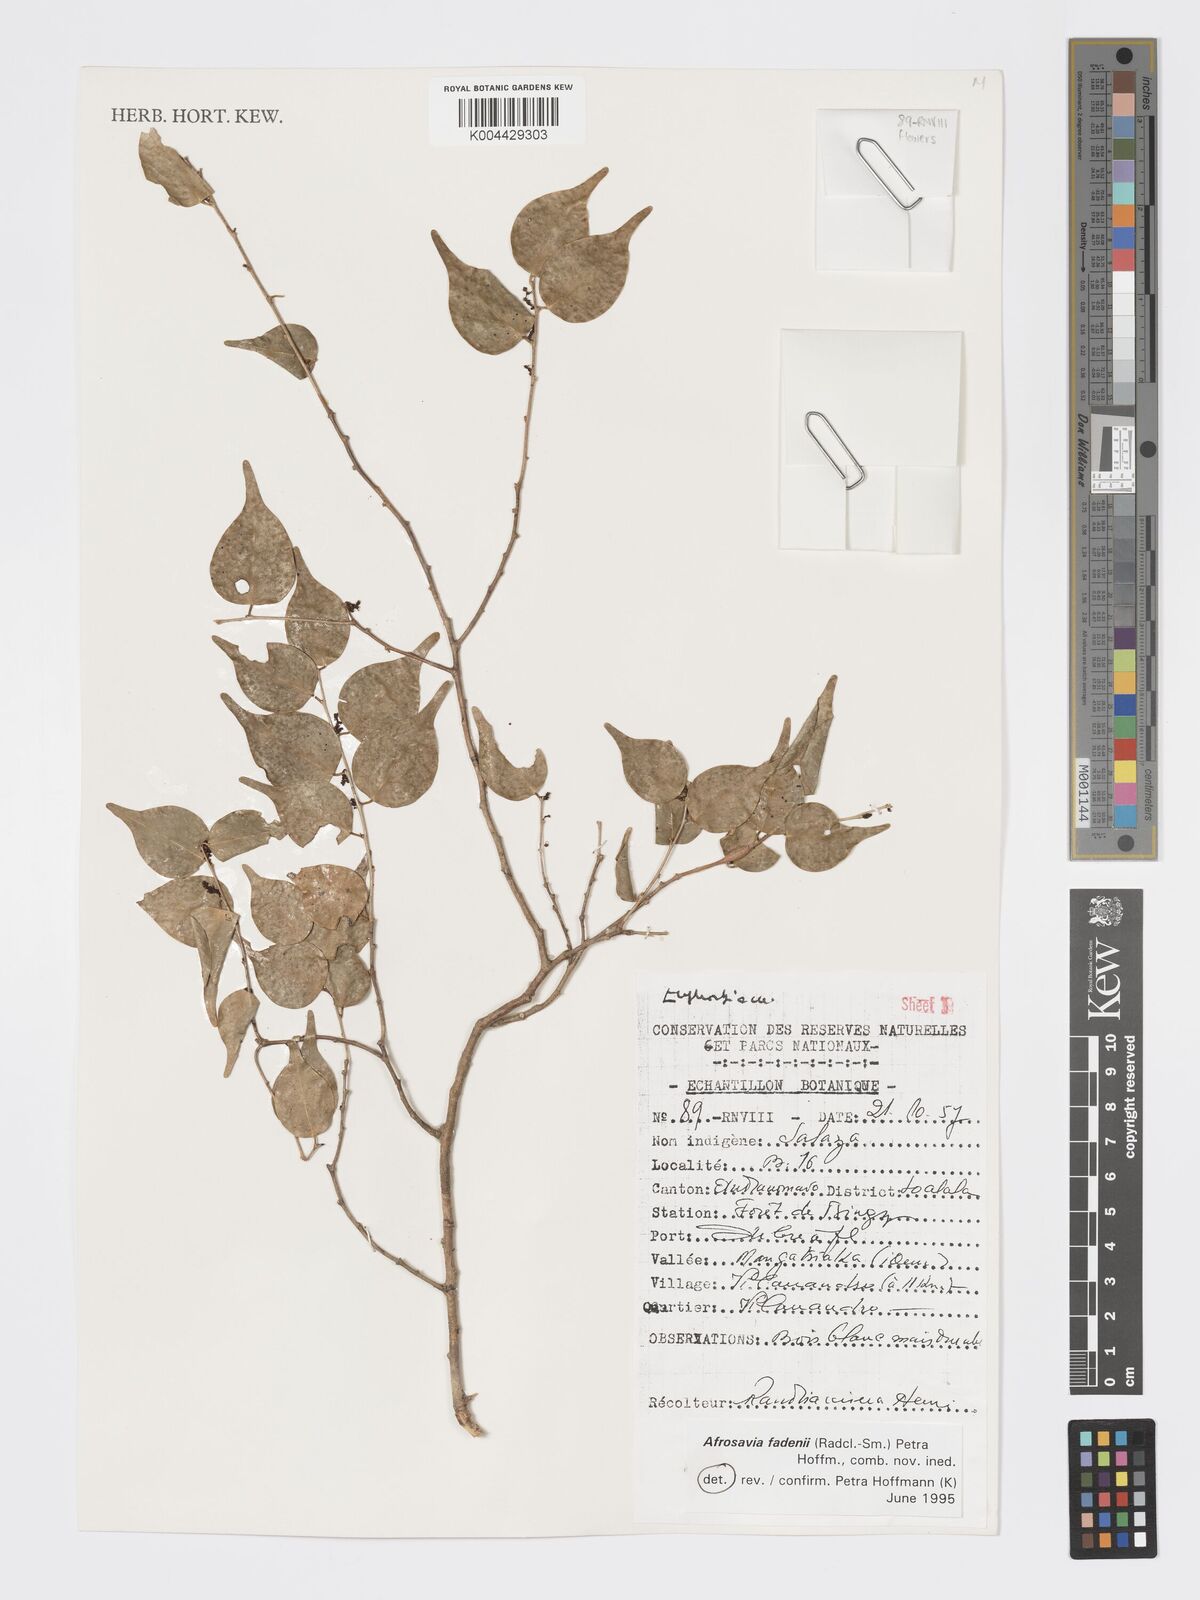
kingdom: Plantae
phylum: Tracheophyta
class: Magnoliopsida
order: Malpighiales
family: Phyllanthaceae
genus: Wielandia
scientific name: Wielandia fadenii
